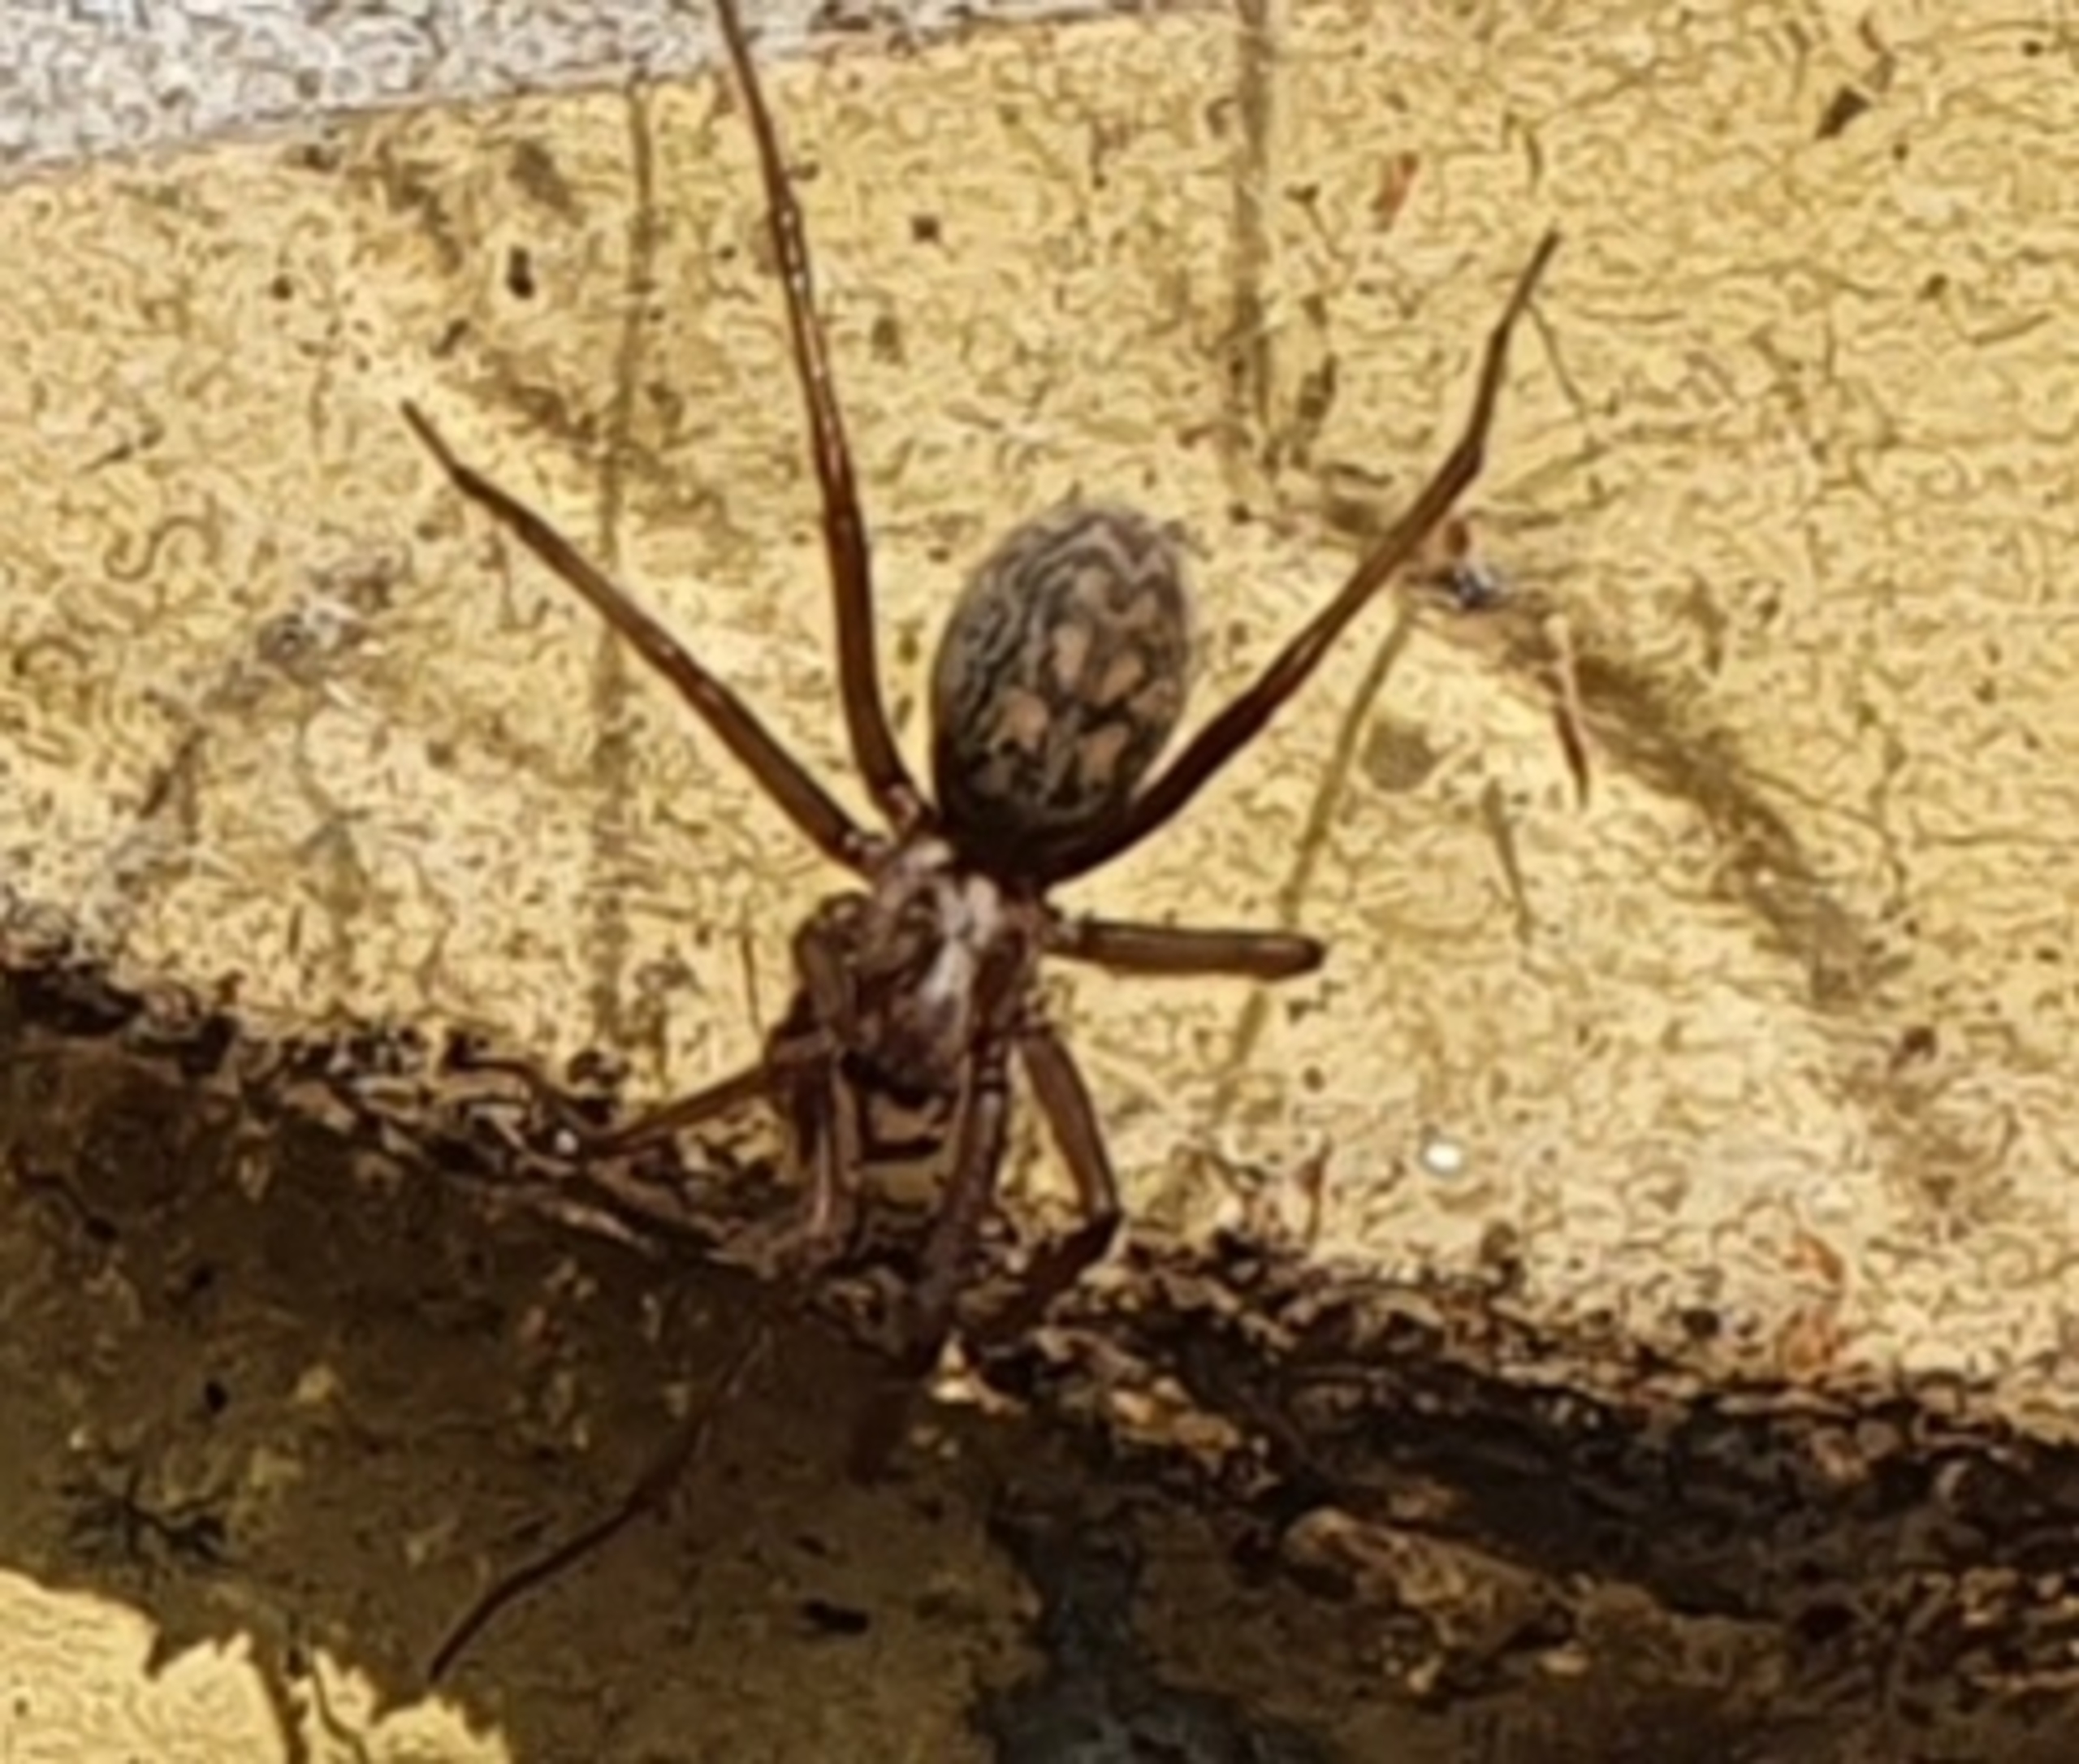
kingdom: Animalia
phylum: Arthropoda
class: Arachnida
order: Araneae
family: Agelenidae
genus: Eratigena
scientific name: Eratigena atrica
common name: Stor husedderkop
